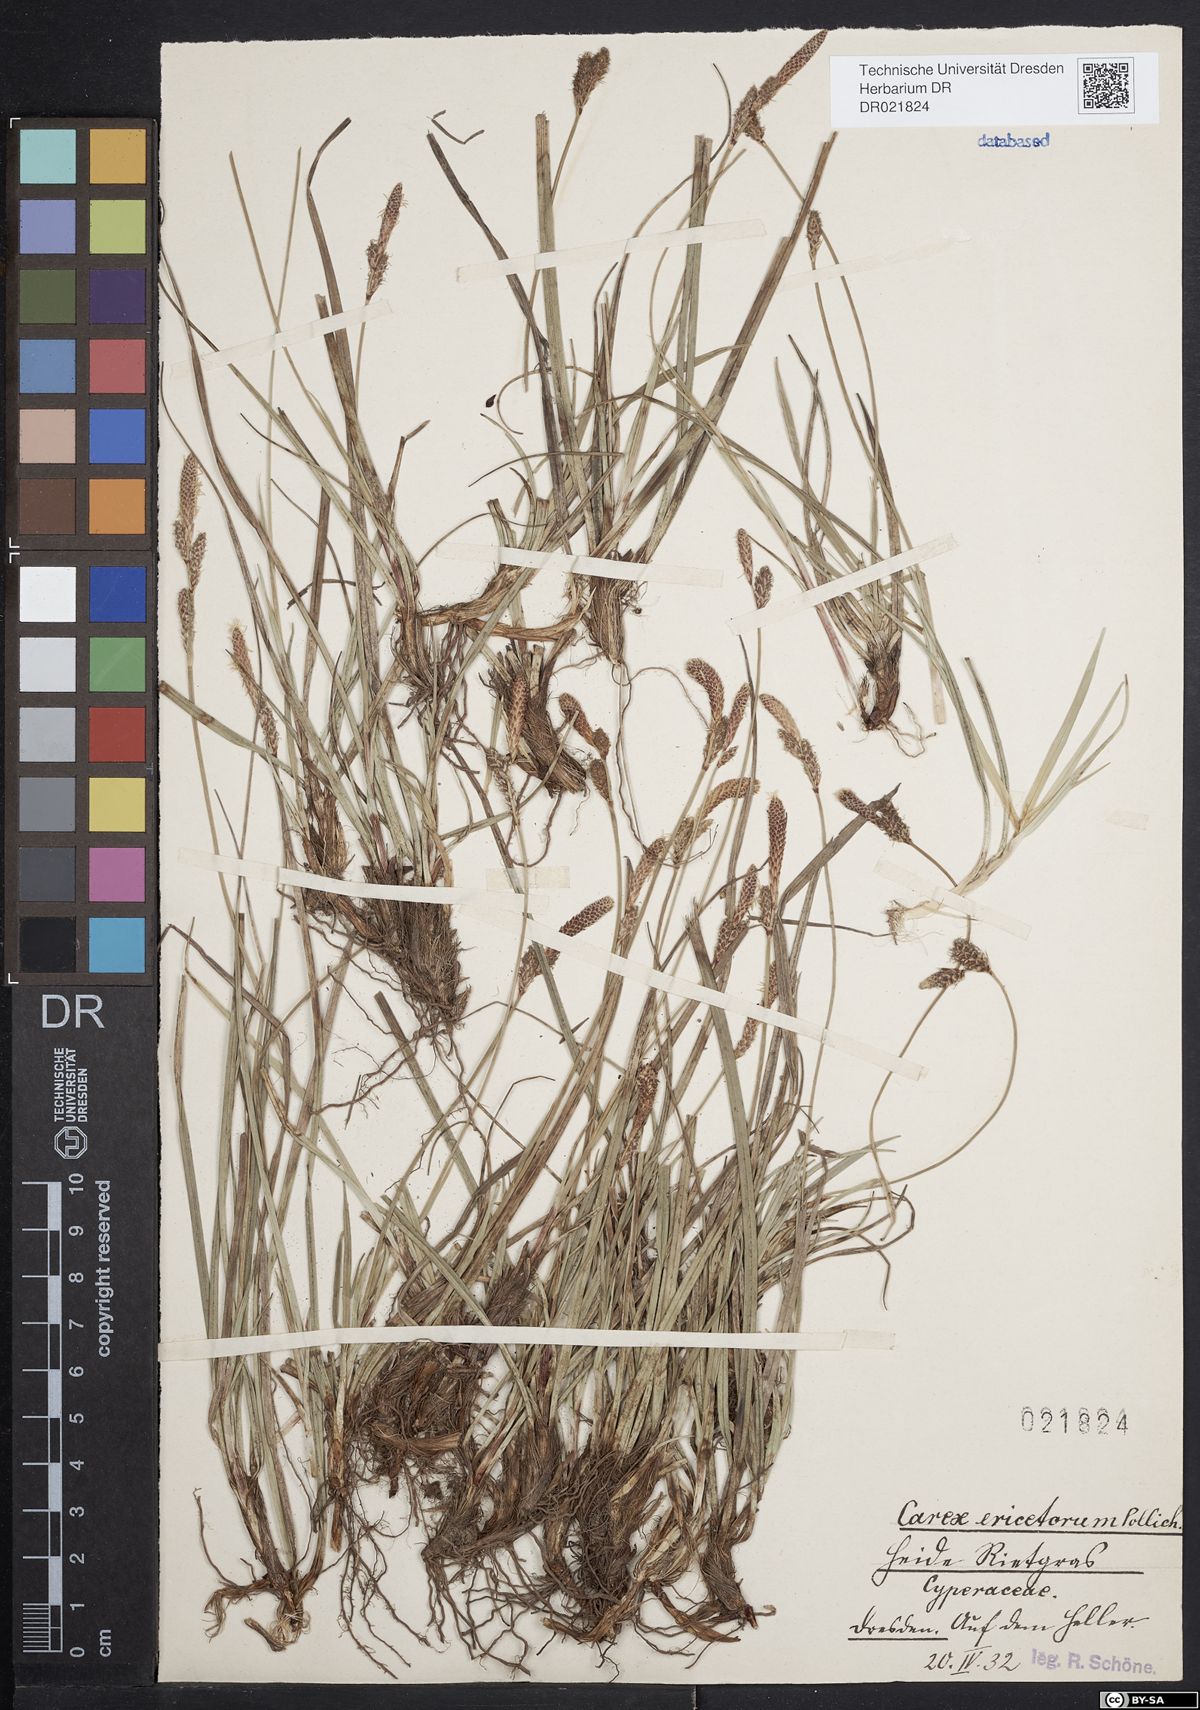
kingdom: Plantae
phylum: Tracheophyta
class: Liliopsida
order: Poales
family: Cyperaceae
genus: Carex
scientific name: Carex ericetorum
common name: Rare spring-sedge
